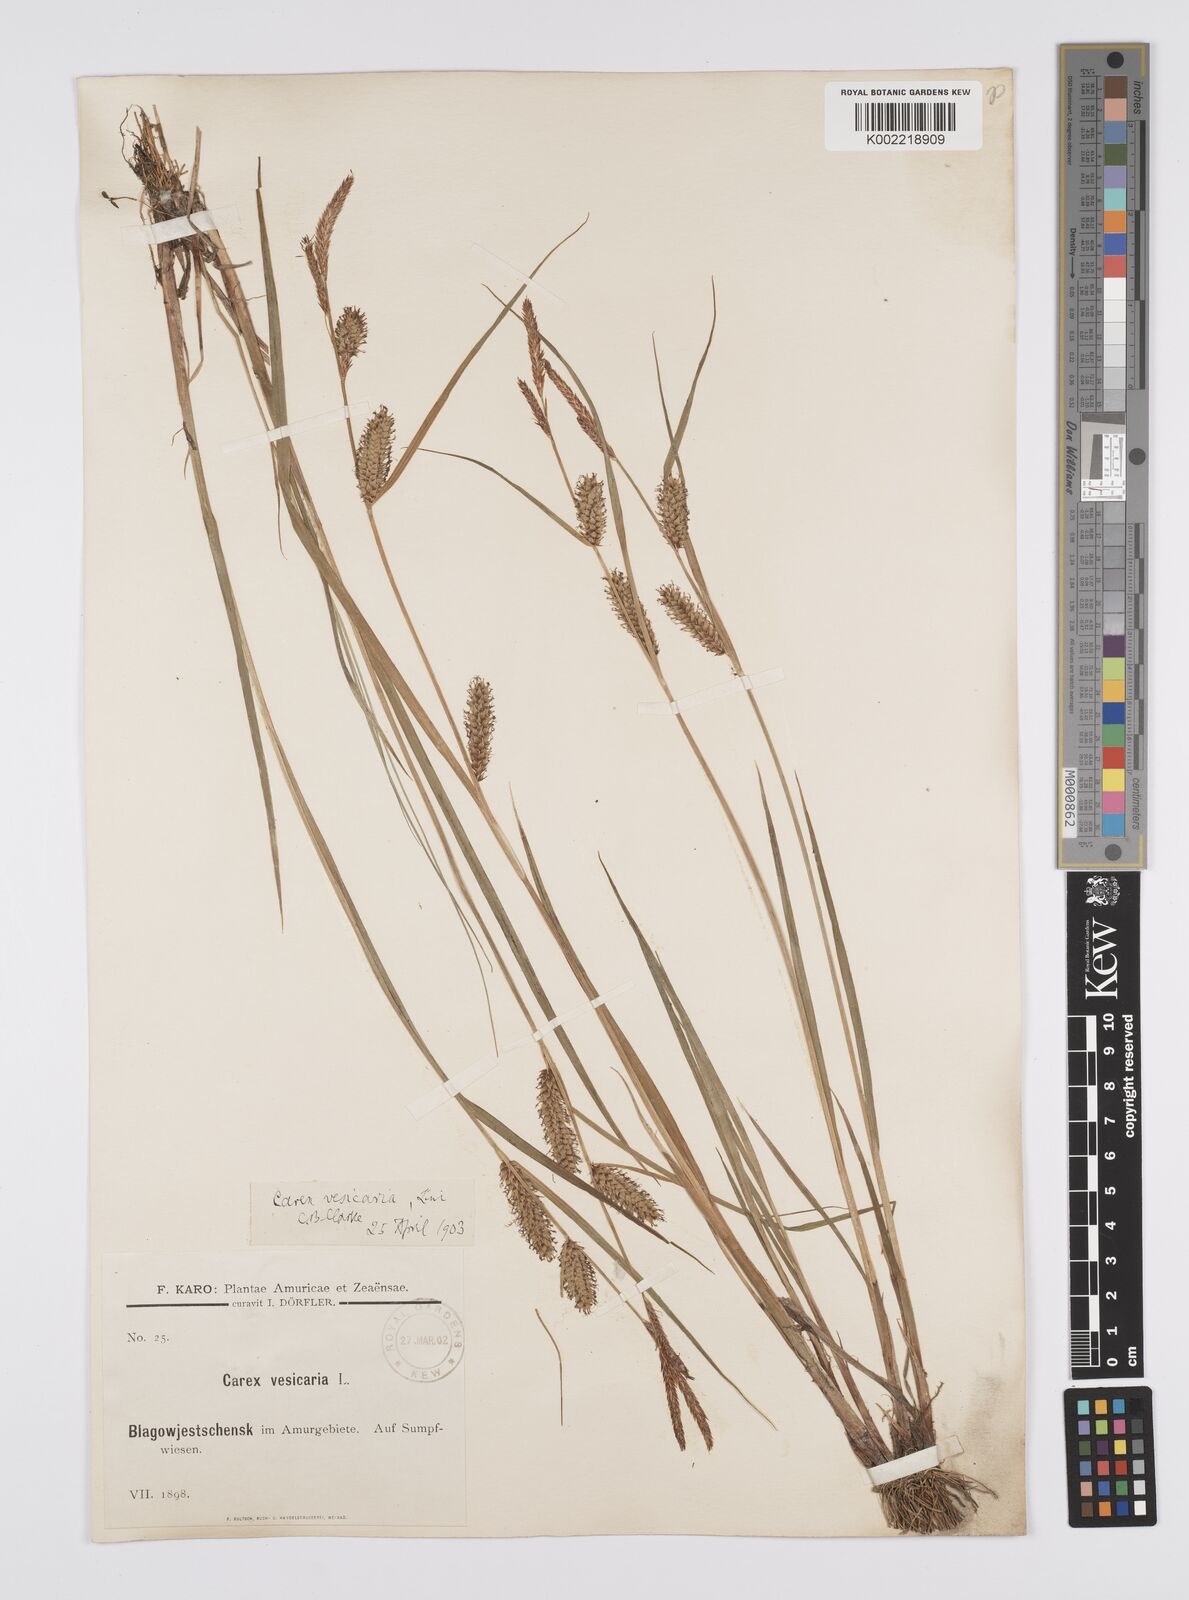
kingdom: Plantae
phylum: Tracheophyta
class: Liliopsida
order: Poales
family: Cyperaceae
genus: Carex
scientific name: Carex vesicaria
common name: Bladder-sedge
